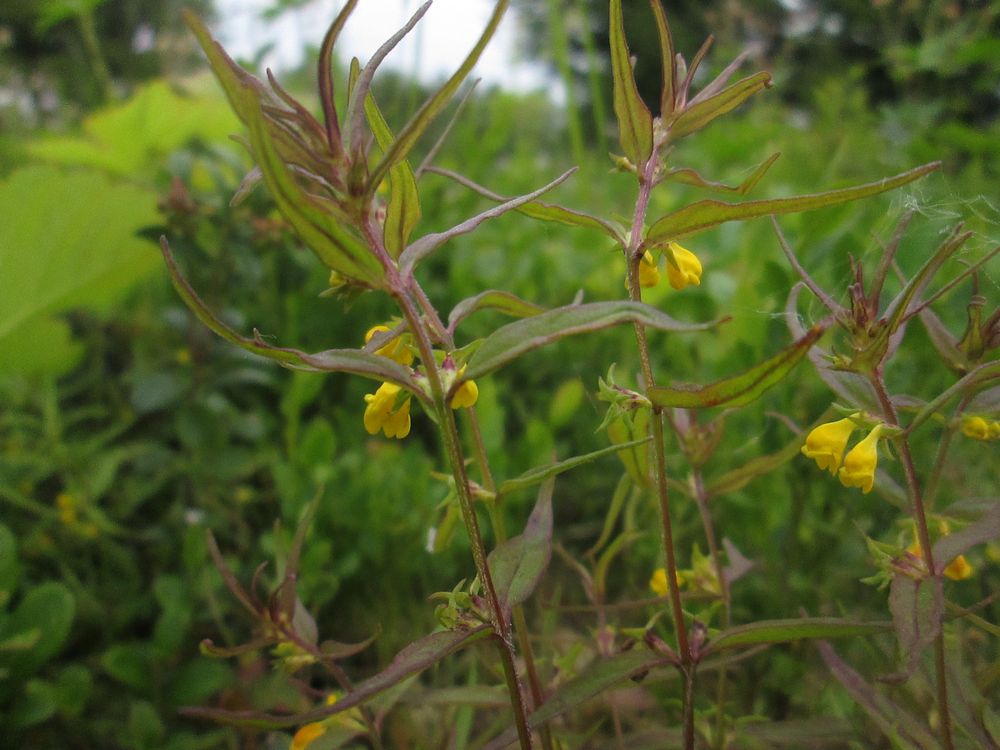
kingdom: Plantae
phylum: Tracheophyta
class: Magnoliopsida
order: Lamiales
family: Orobanchaceae
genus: Melampyrum
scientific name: Melampyrum pratense
